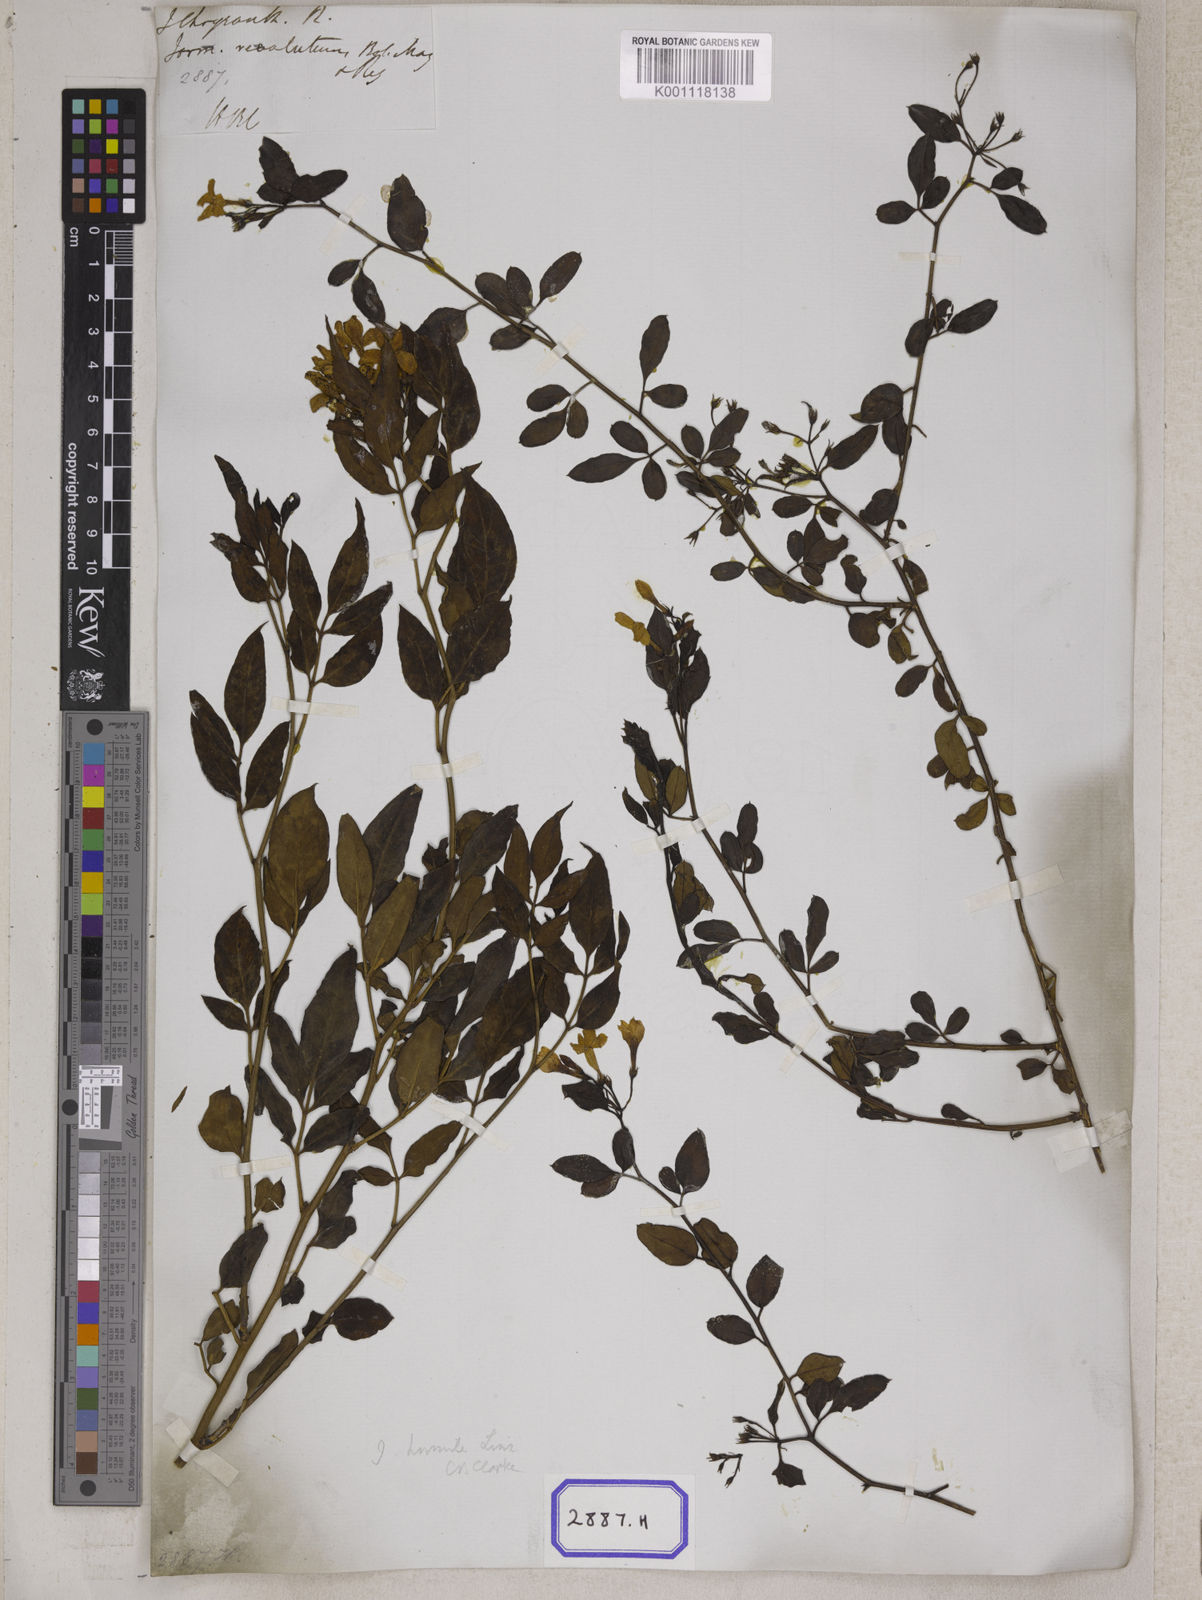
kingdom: Plantae
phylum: Tracheophyta
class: Magnoliopsida
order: Lamiales
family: Oleaceae
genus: Chrysojasminum
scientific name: Chrysojasminum humile
